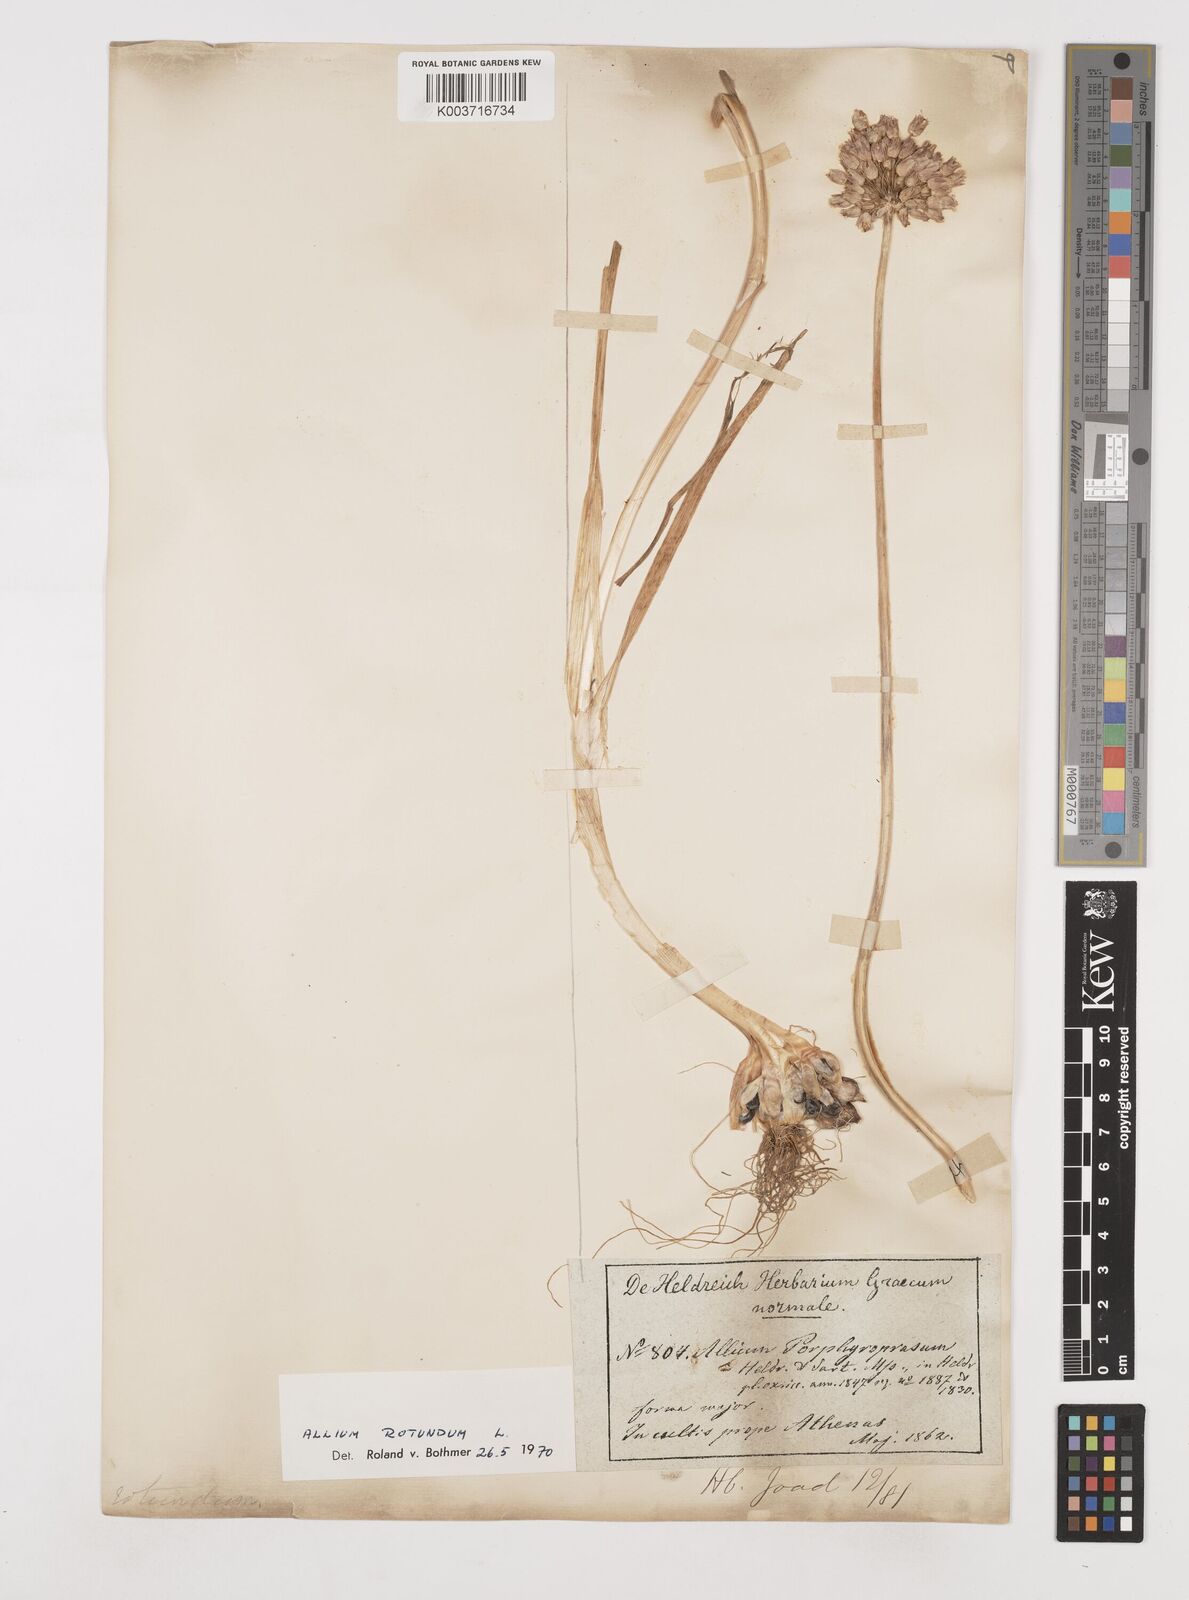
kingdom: Plantae
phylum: Tracheophyta
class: Liliopsida
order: Asparagales
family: Amaryllidaceae
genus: Allium
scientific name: Allium rotundum
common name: Sand leek
